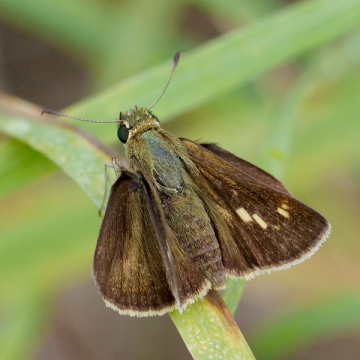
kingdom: Animalia
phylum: Arthropoda
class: Insecta
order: Lepidoptera
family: Hesperiidae
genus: Polites
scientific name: Polites egeremet
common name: Northern Broken-Dash
